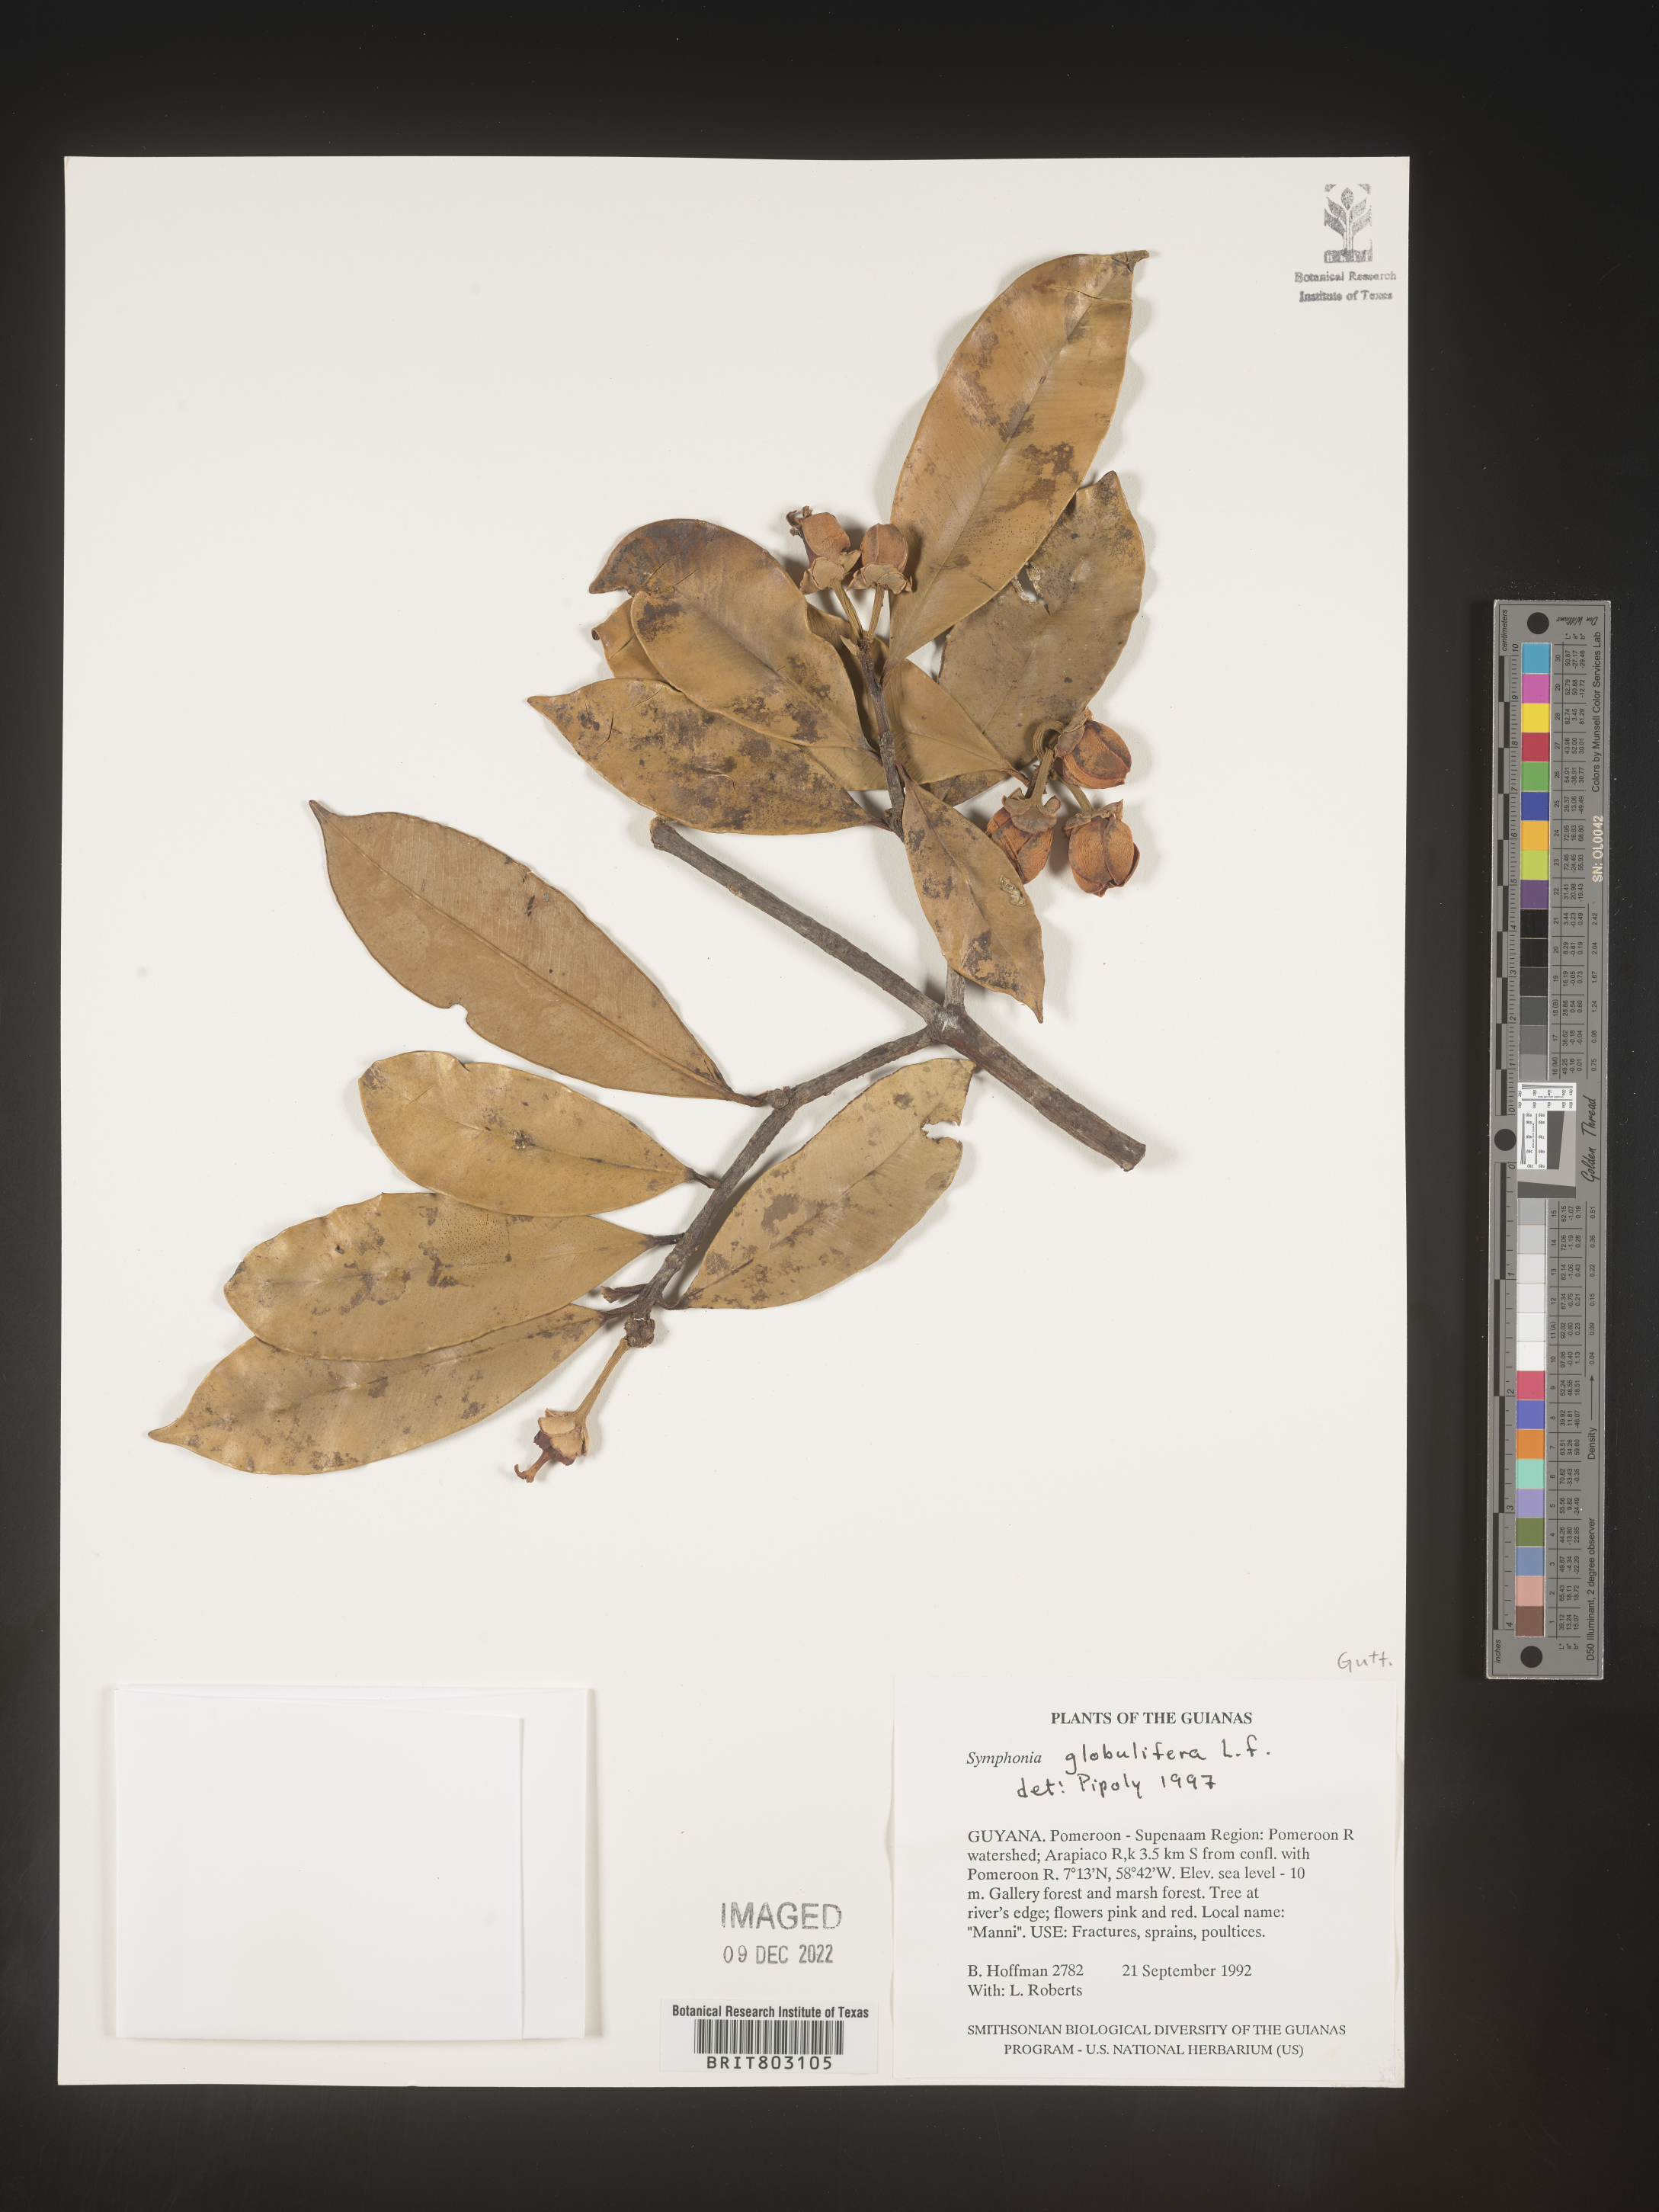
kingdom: Plantae
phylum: Tracheophyta
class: Magnoliopsida
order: Malpighiales
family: Clusiaceae
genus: Symphonia
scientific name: Symphonia
